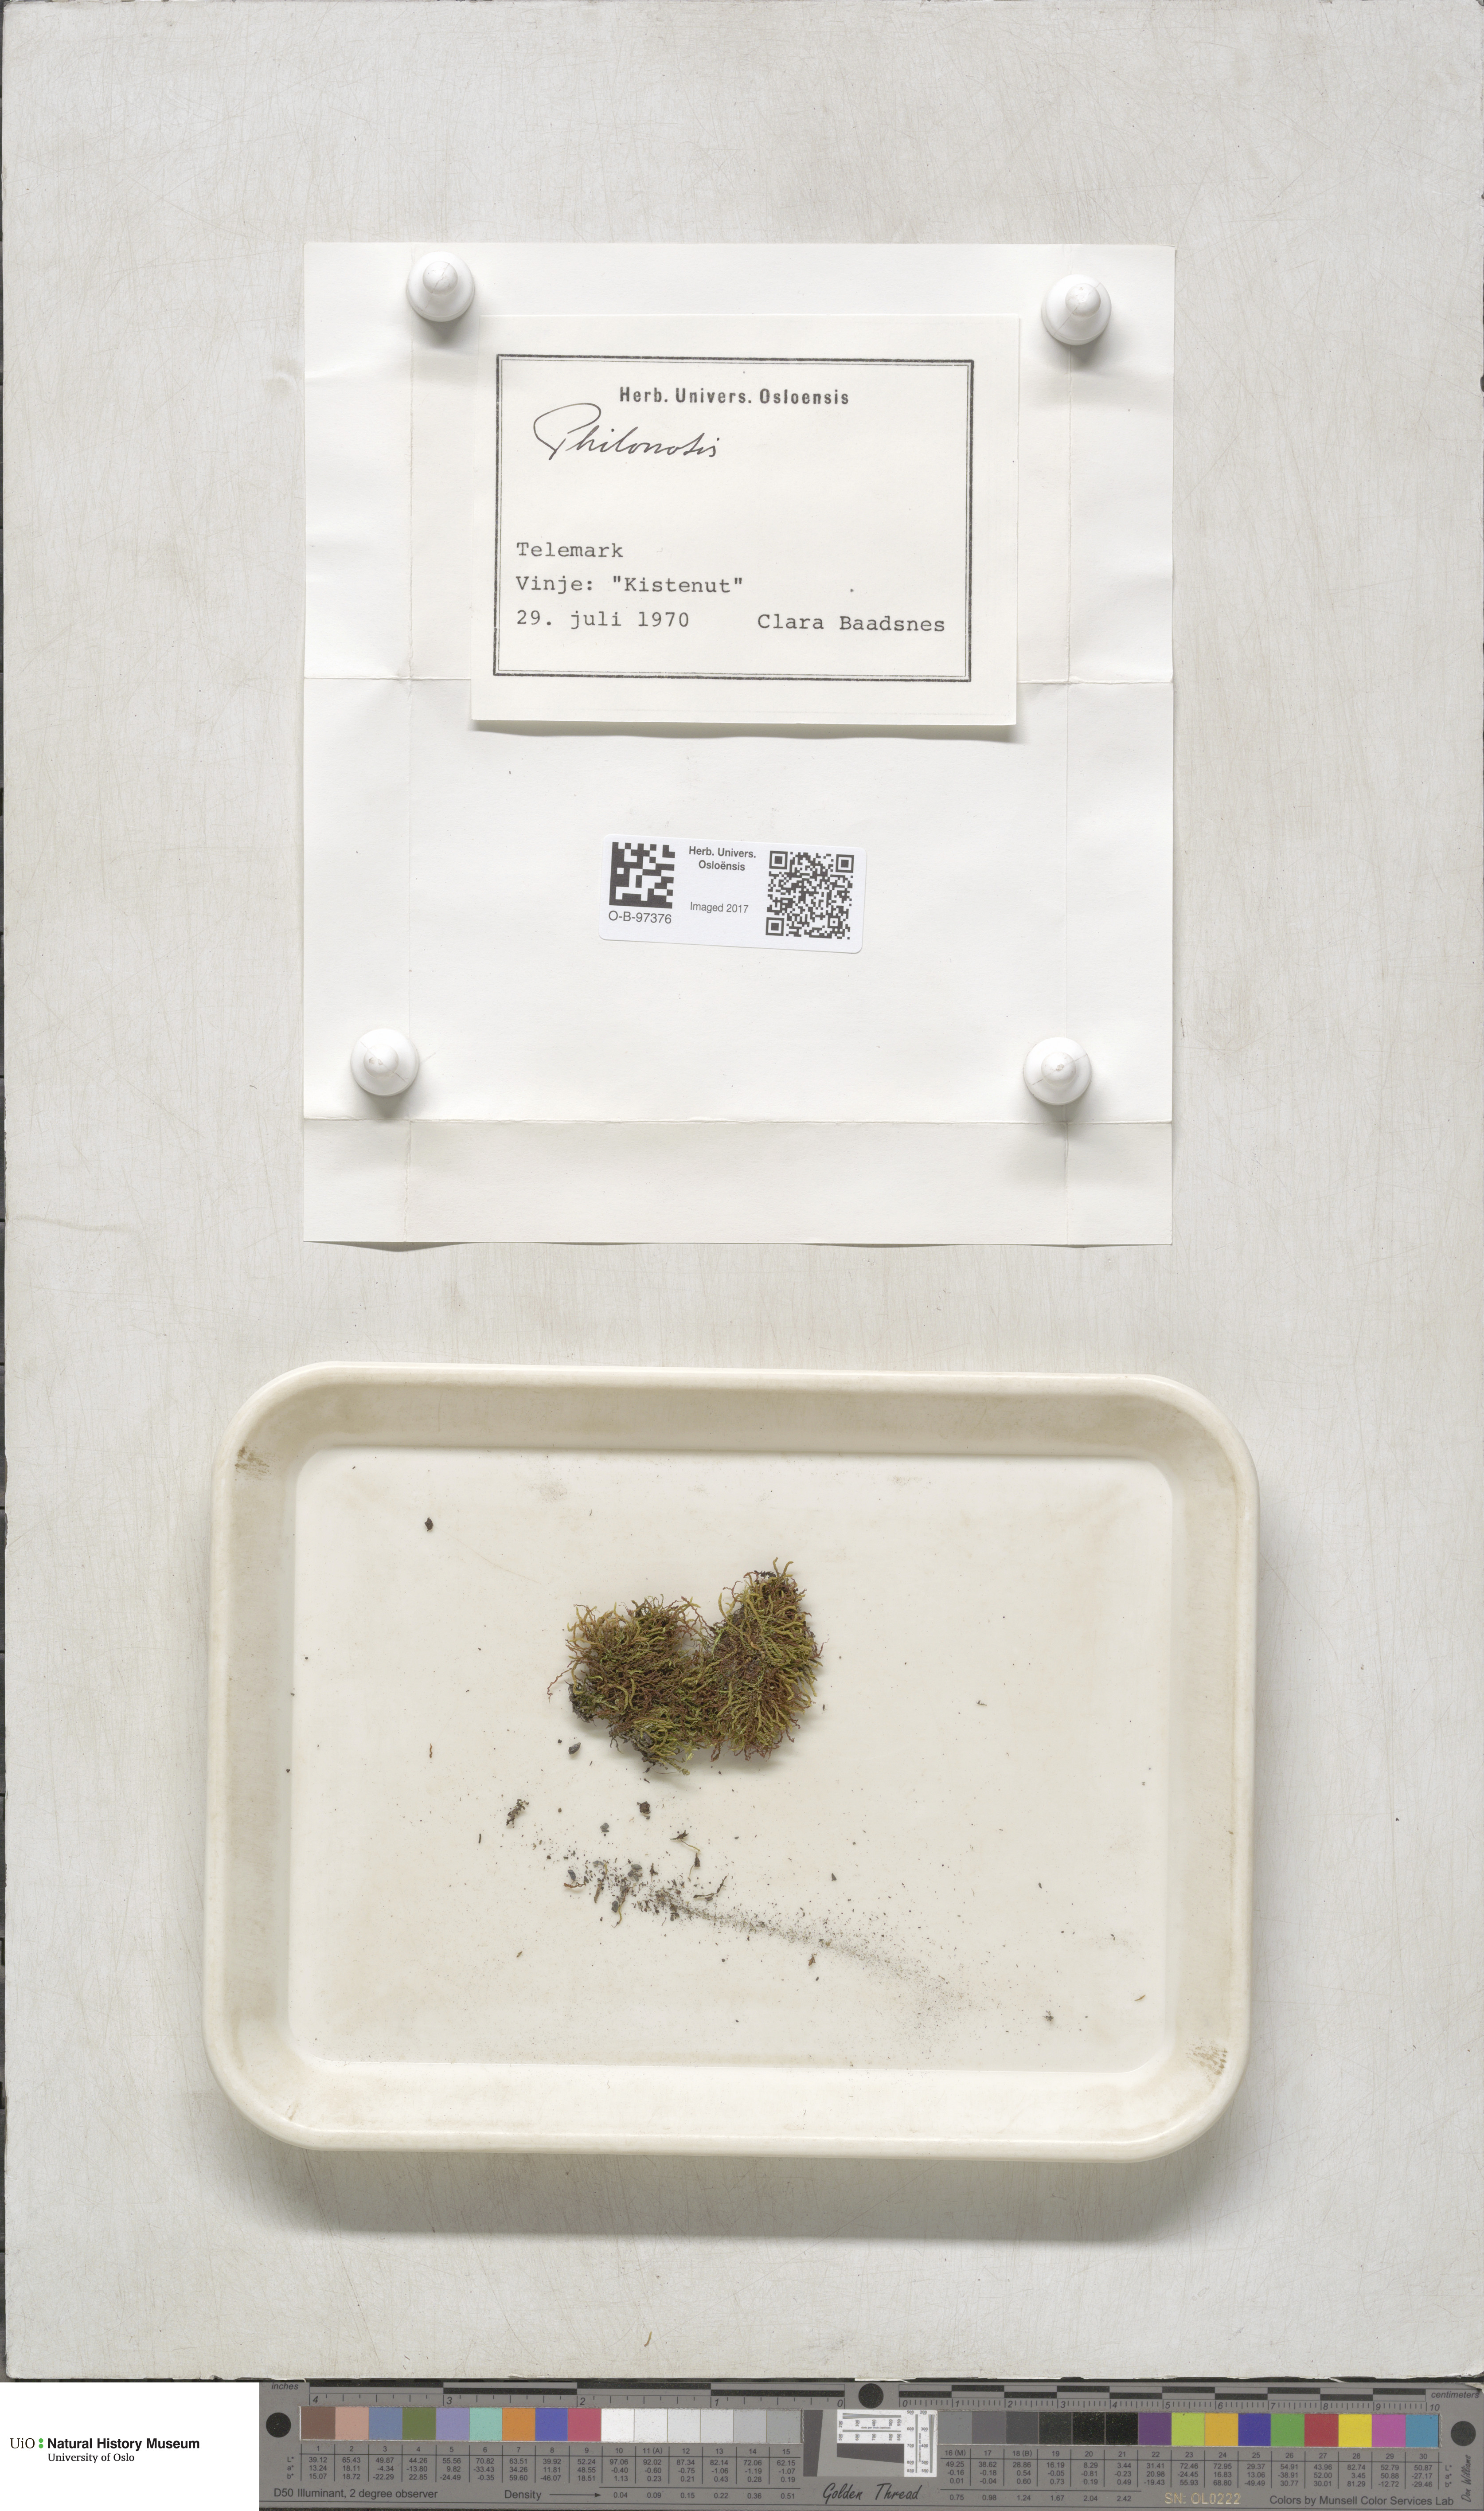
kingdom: Plantae
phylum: Bryophyta
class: Bryopsida
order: Bartramiales
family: Bartramiaceae
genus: Philonotis
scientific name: Philonotis
